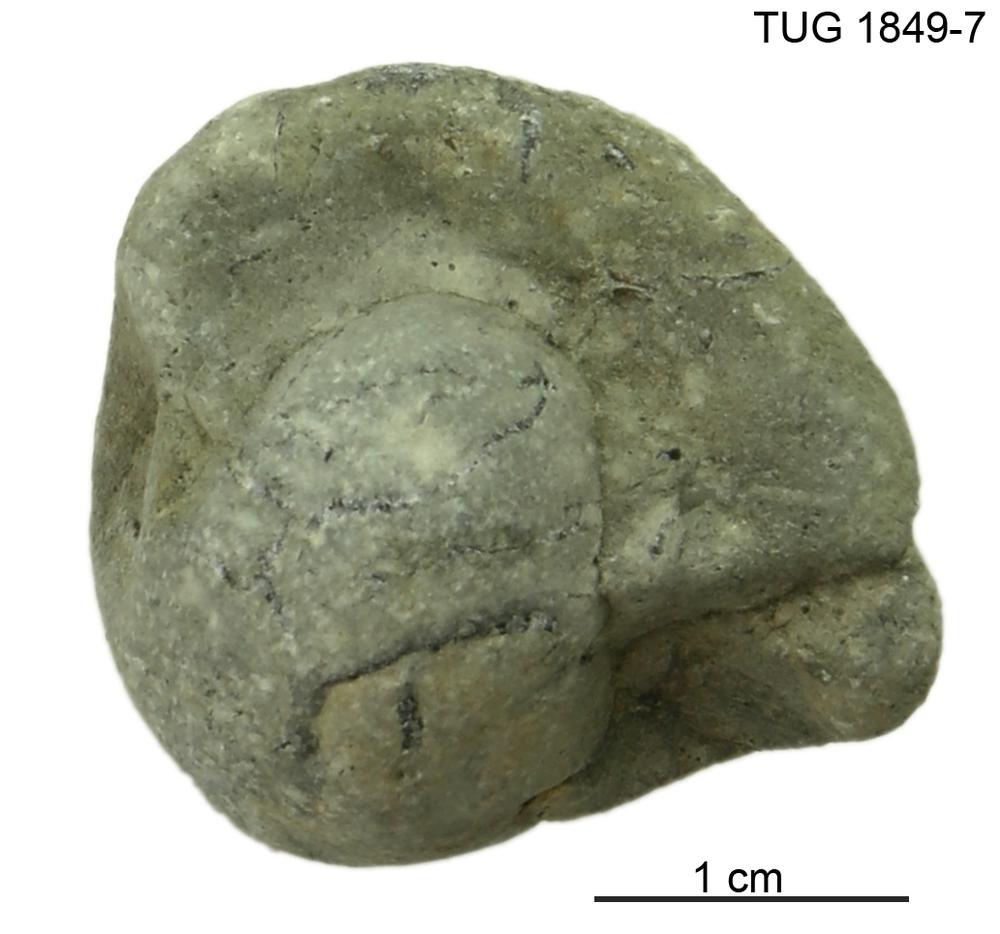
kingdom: Animalia
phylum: Mollusca
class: Gastropoda
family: Bucaniidae
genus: Kokenospira
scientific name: Kokenospira
